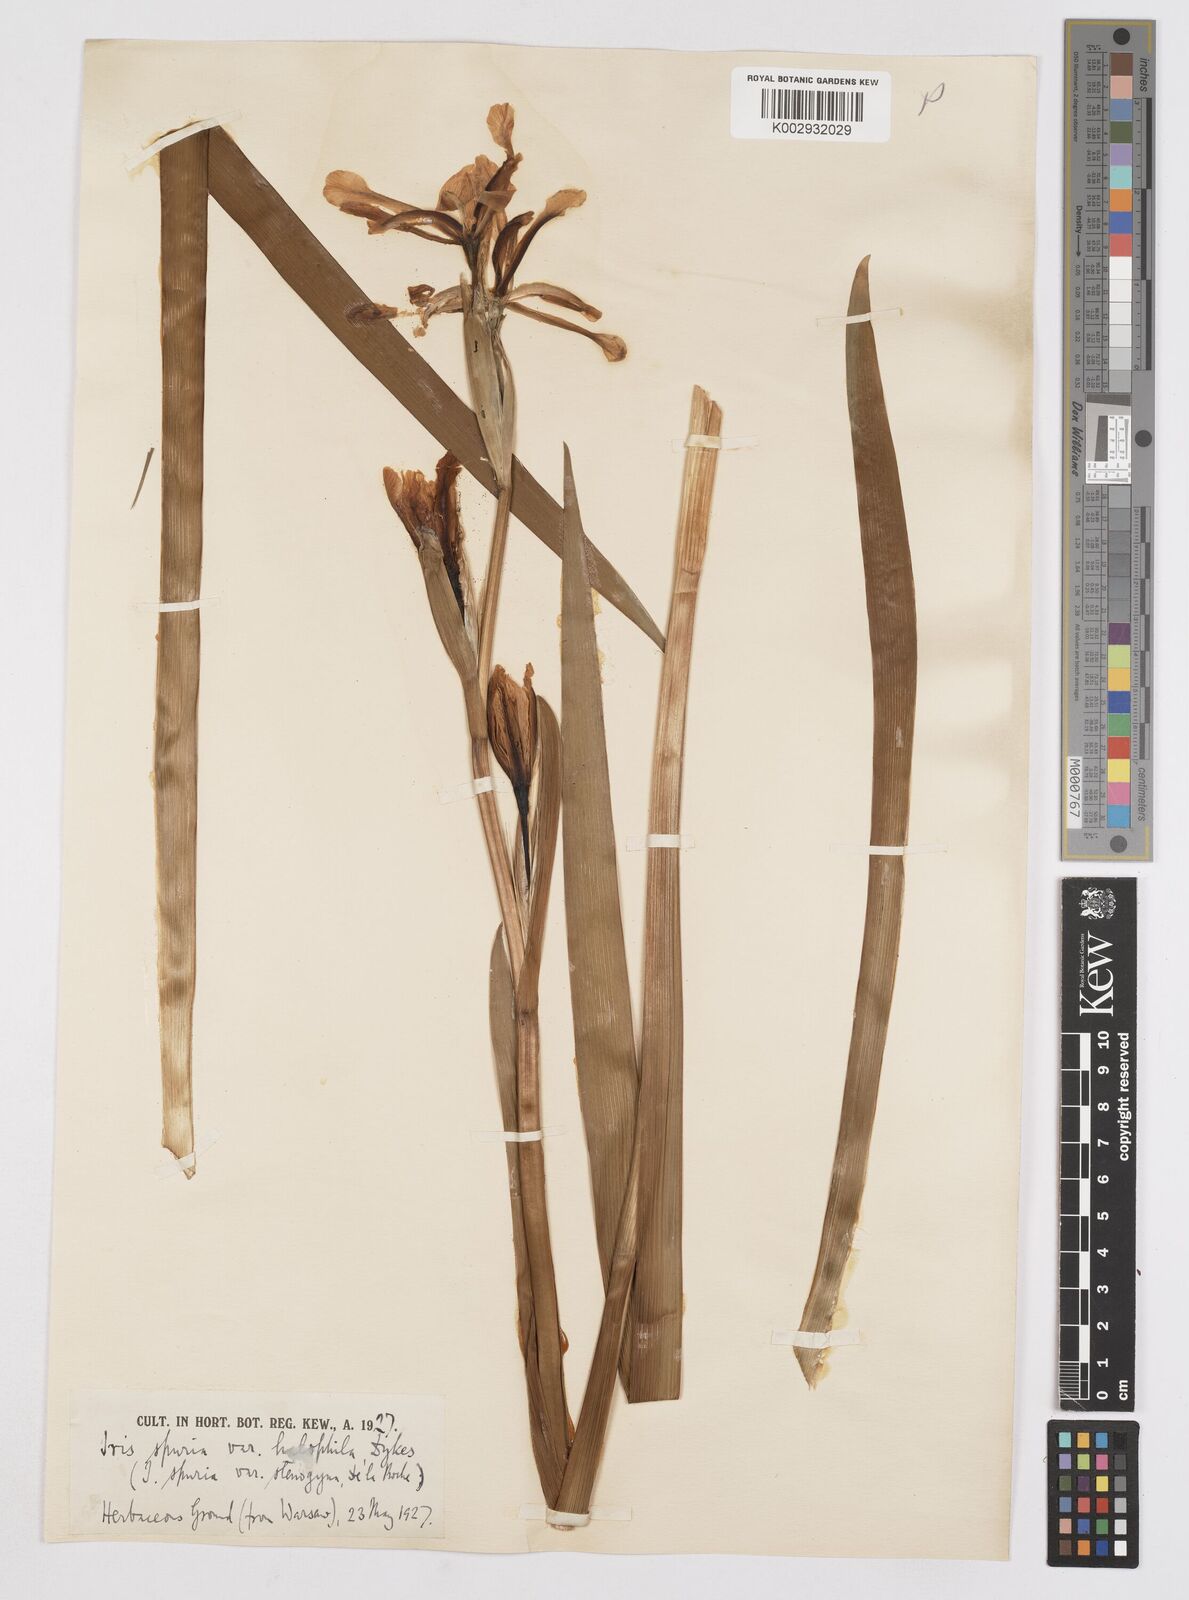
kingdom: Plantae
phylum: Tracheophyta
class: Liliopsida
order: Asparagales
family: Iridaceae
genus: Iris
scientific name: Iris halophila
